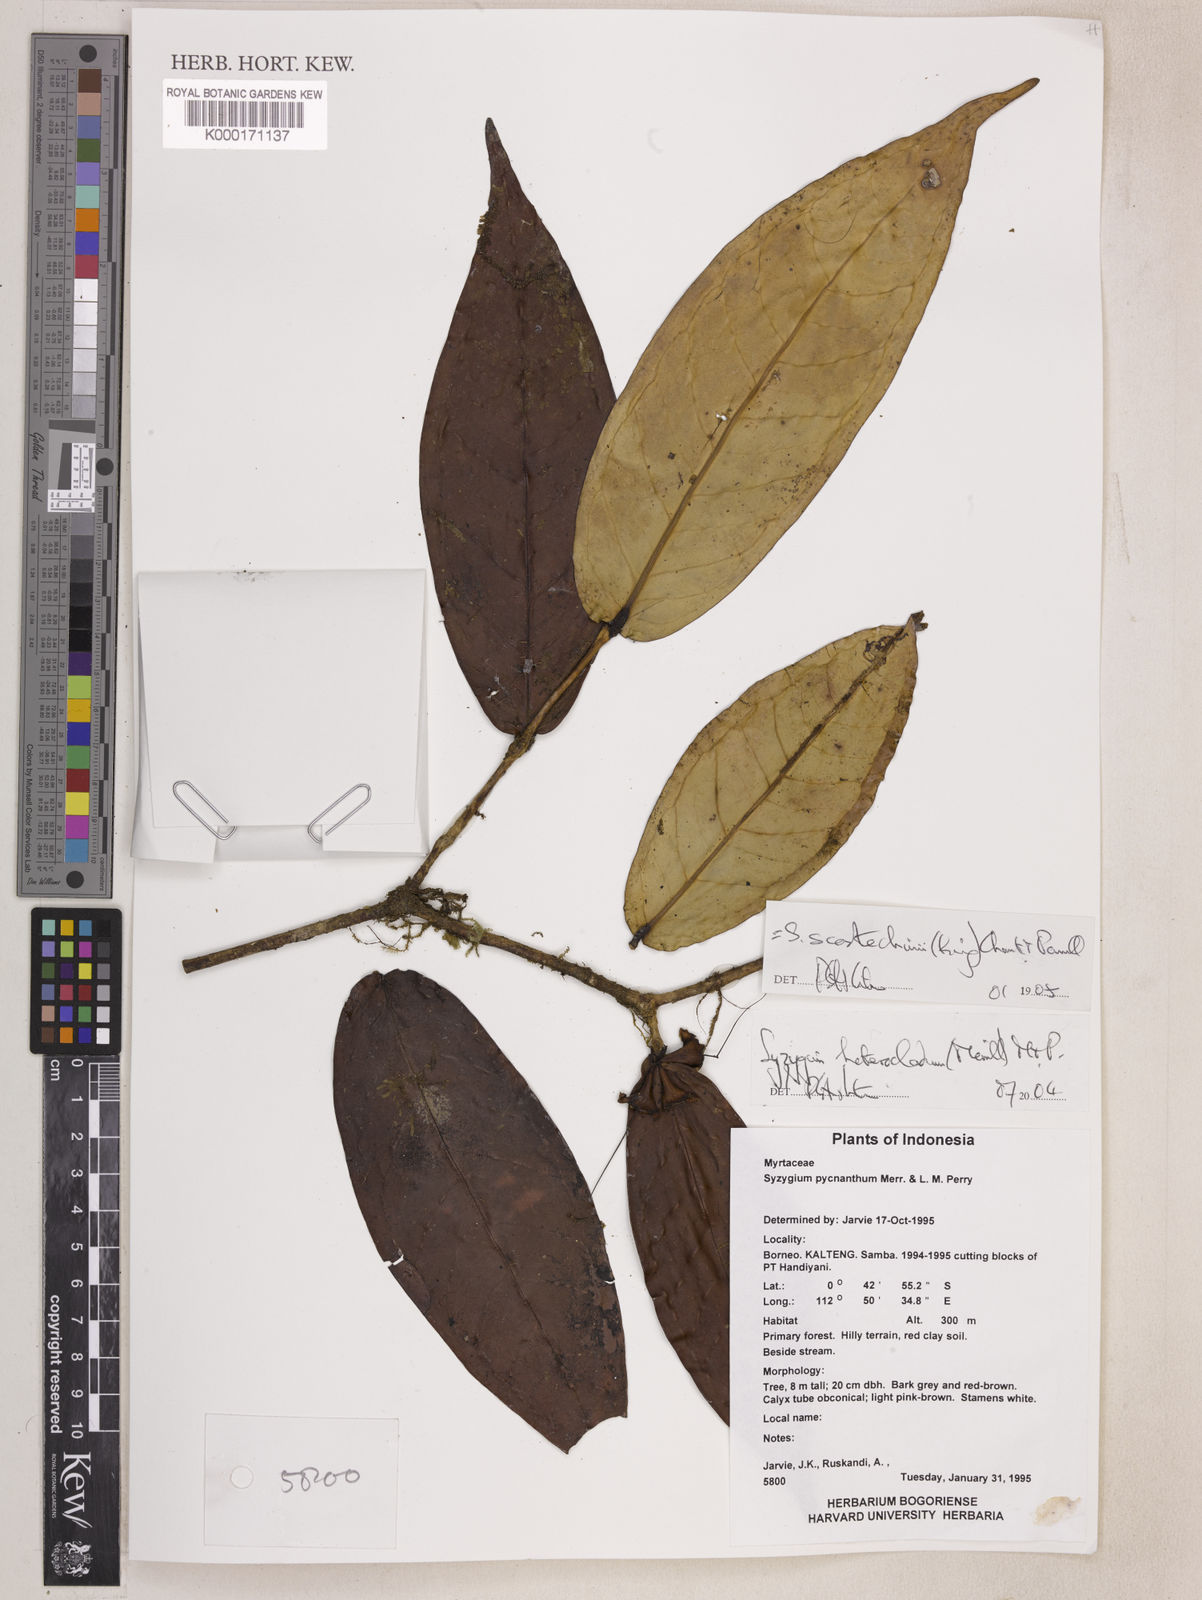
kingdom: Plantae
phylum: Tracheophyta
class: Magnoliopsida
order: Myrtales
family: Myrtaceae
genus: Syzygium
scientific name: Syzygium scortechinii
